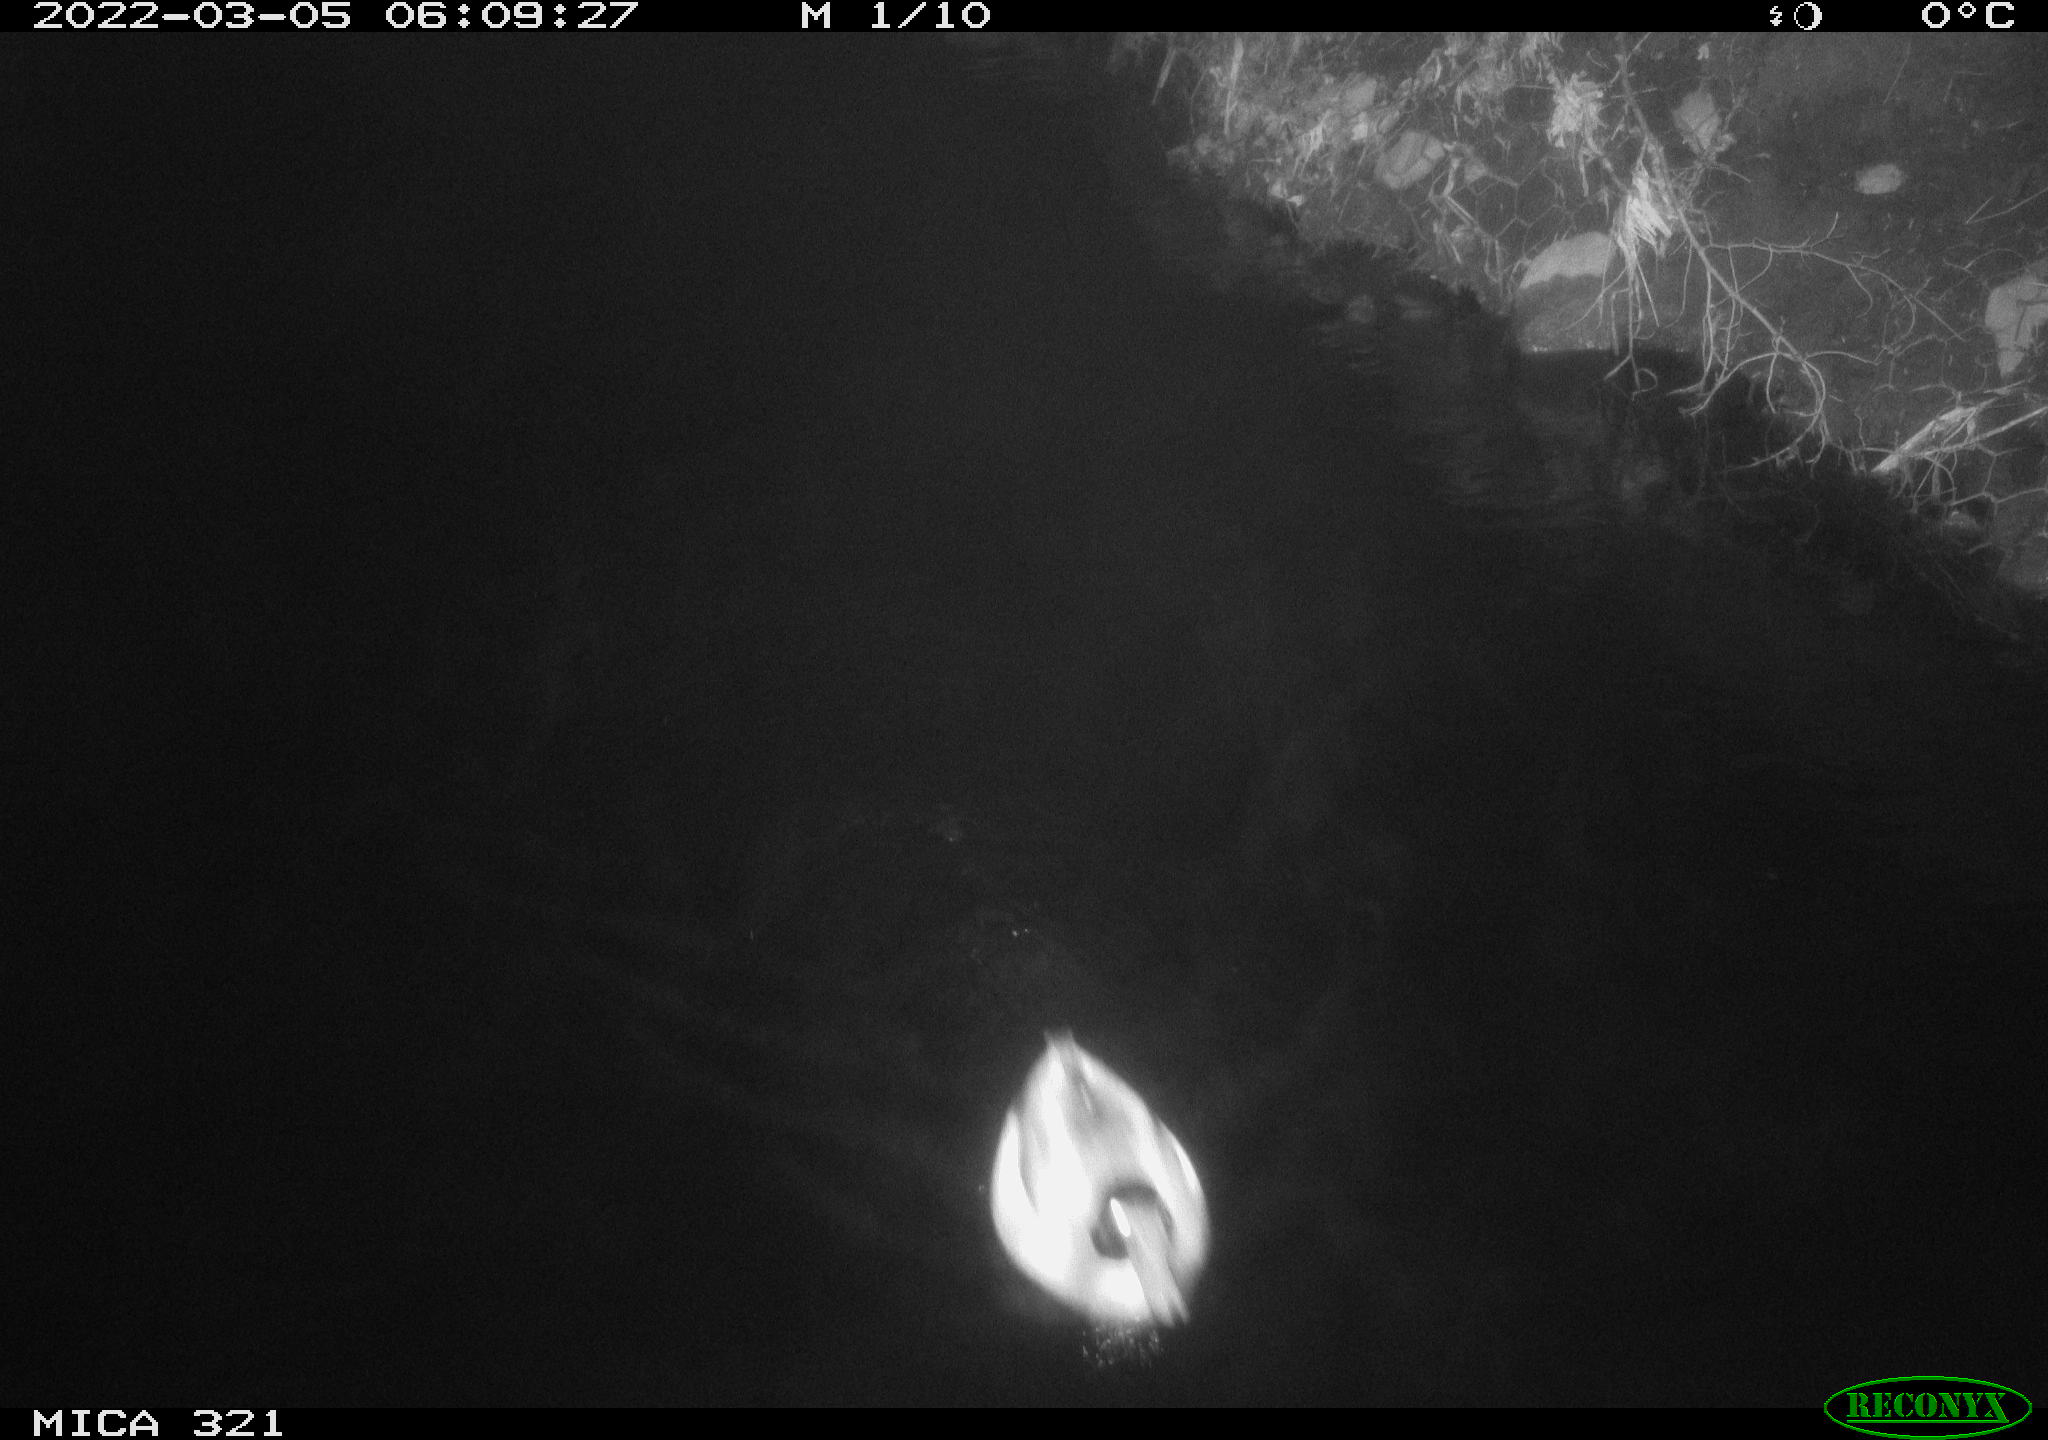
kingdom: Animalia
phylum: Chordata
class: Aves
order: Anseriformes
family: Anatidae
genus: Anas
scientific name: Anas platyrhynchos
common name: Mallard
